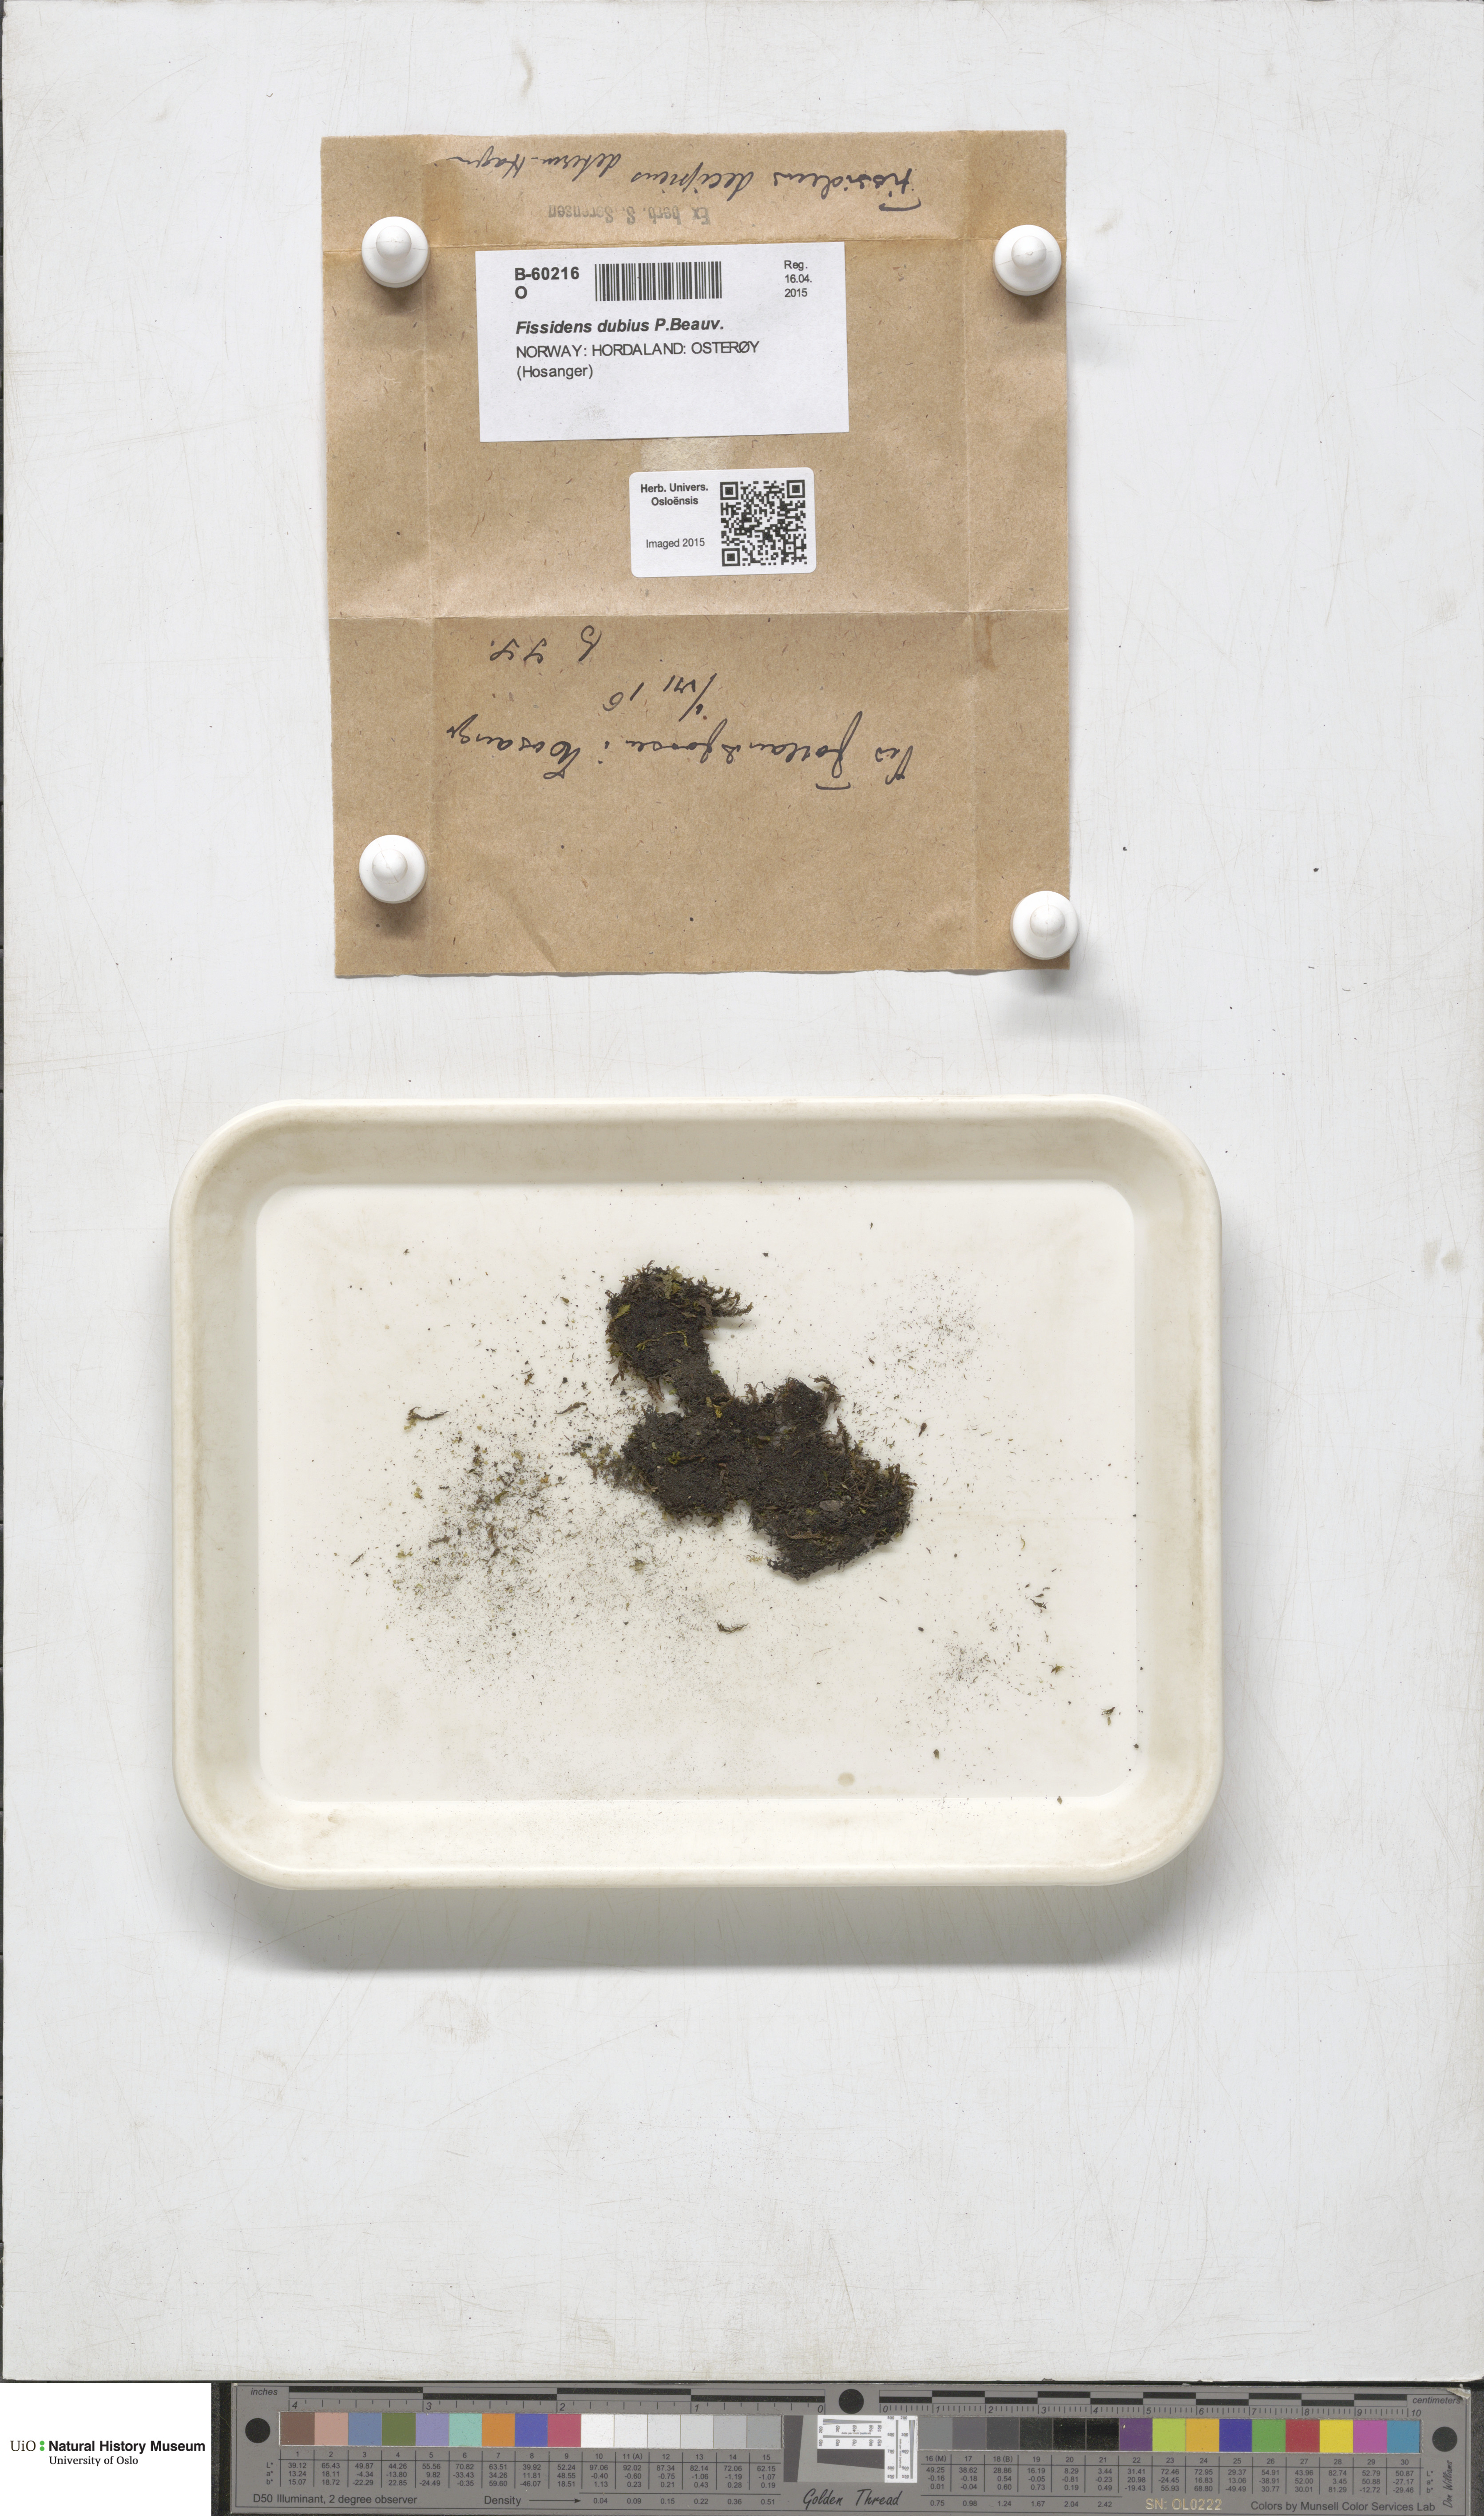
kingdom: Plantae
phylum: Bryophyta
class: Bryopsida
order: Dicranales
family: Fissidentaceae
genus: Fissidens
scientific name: Fissidens dubius
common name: Rock pocket moss
